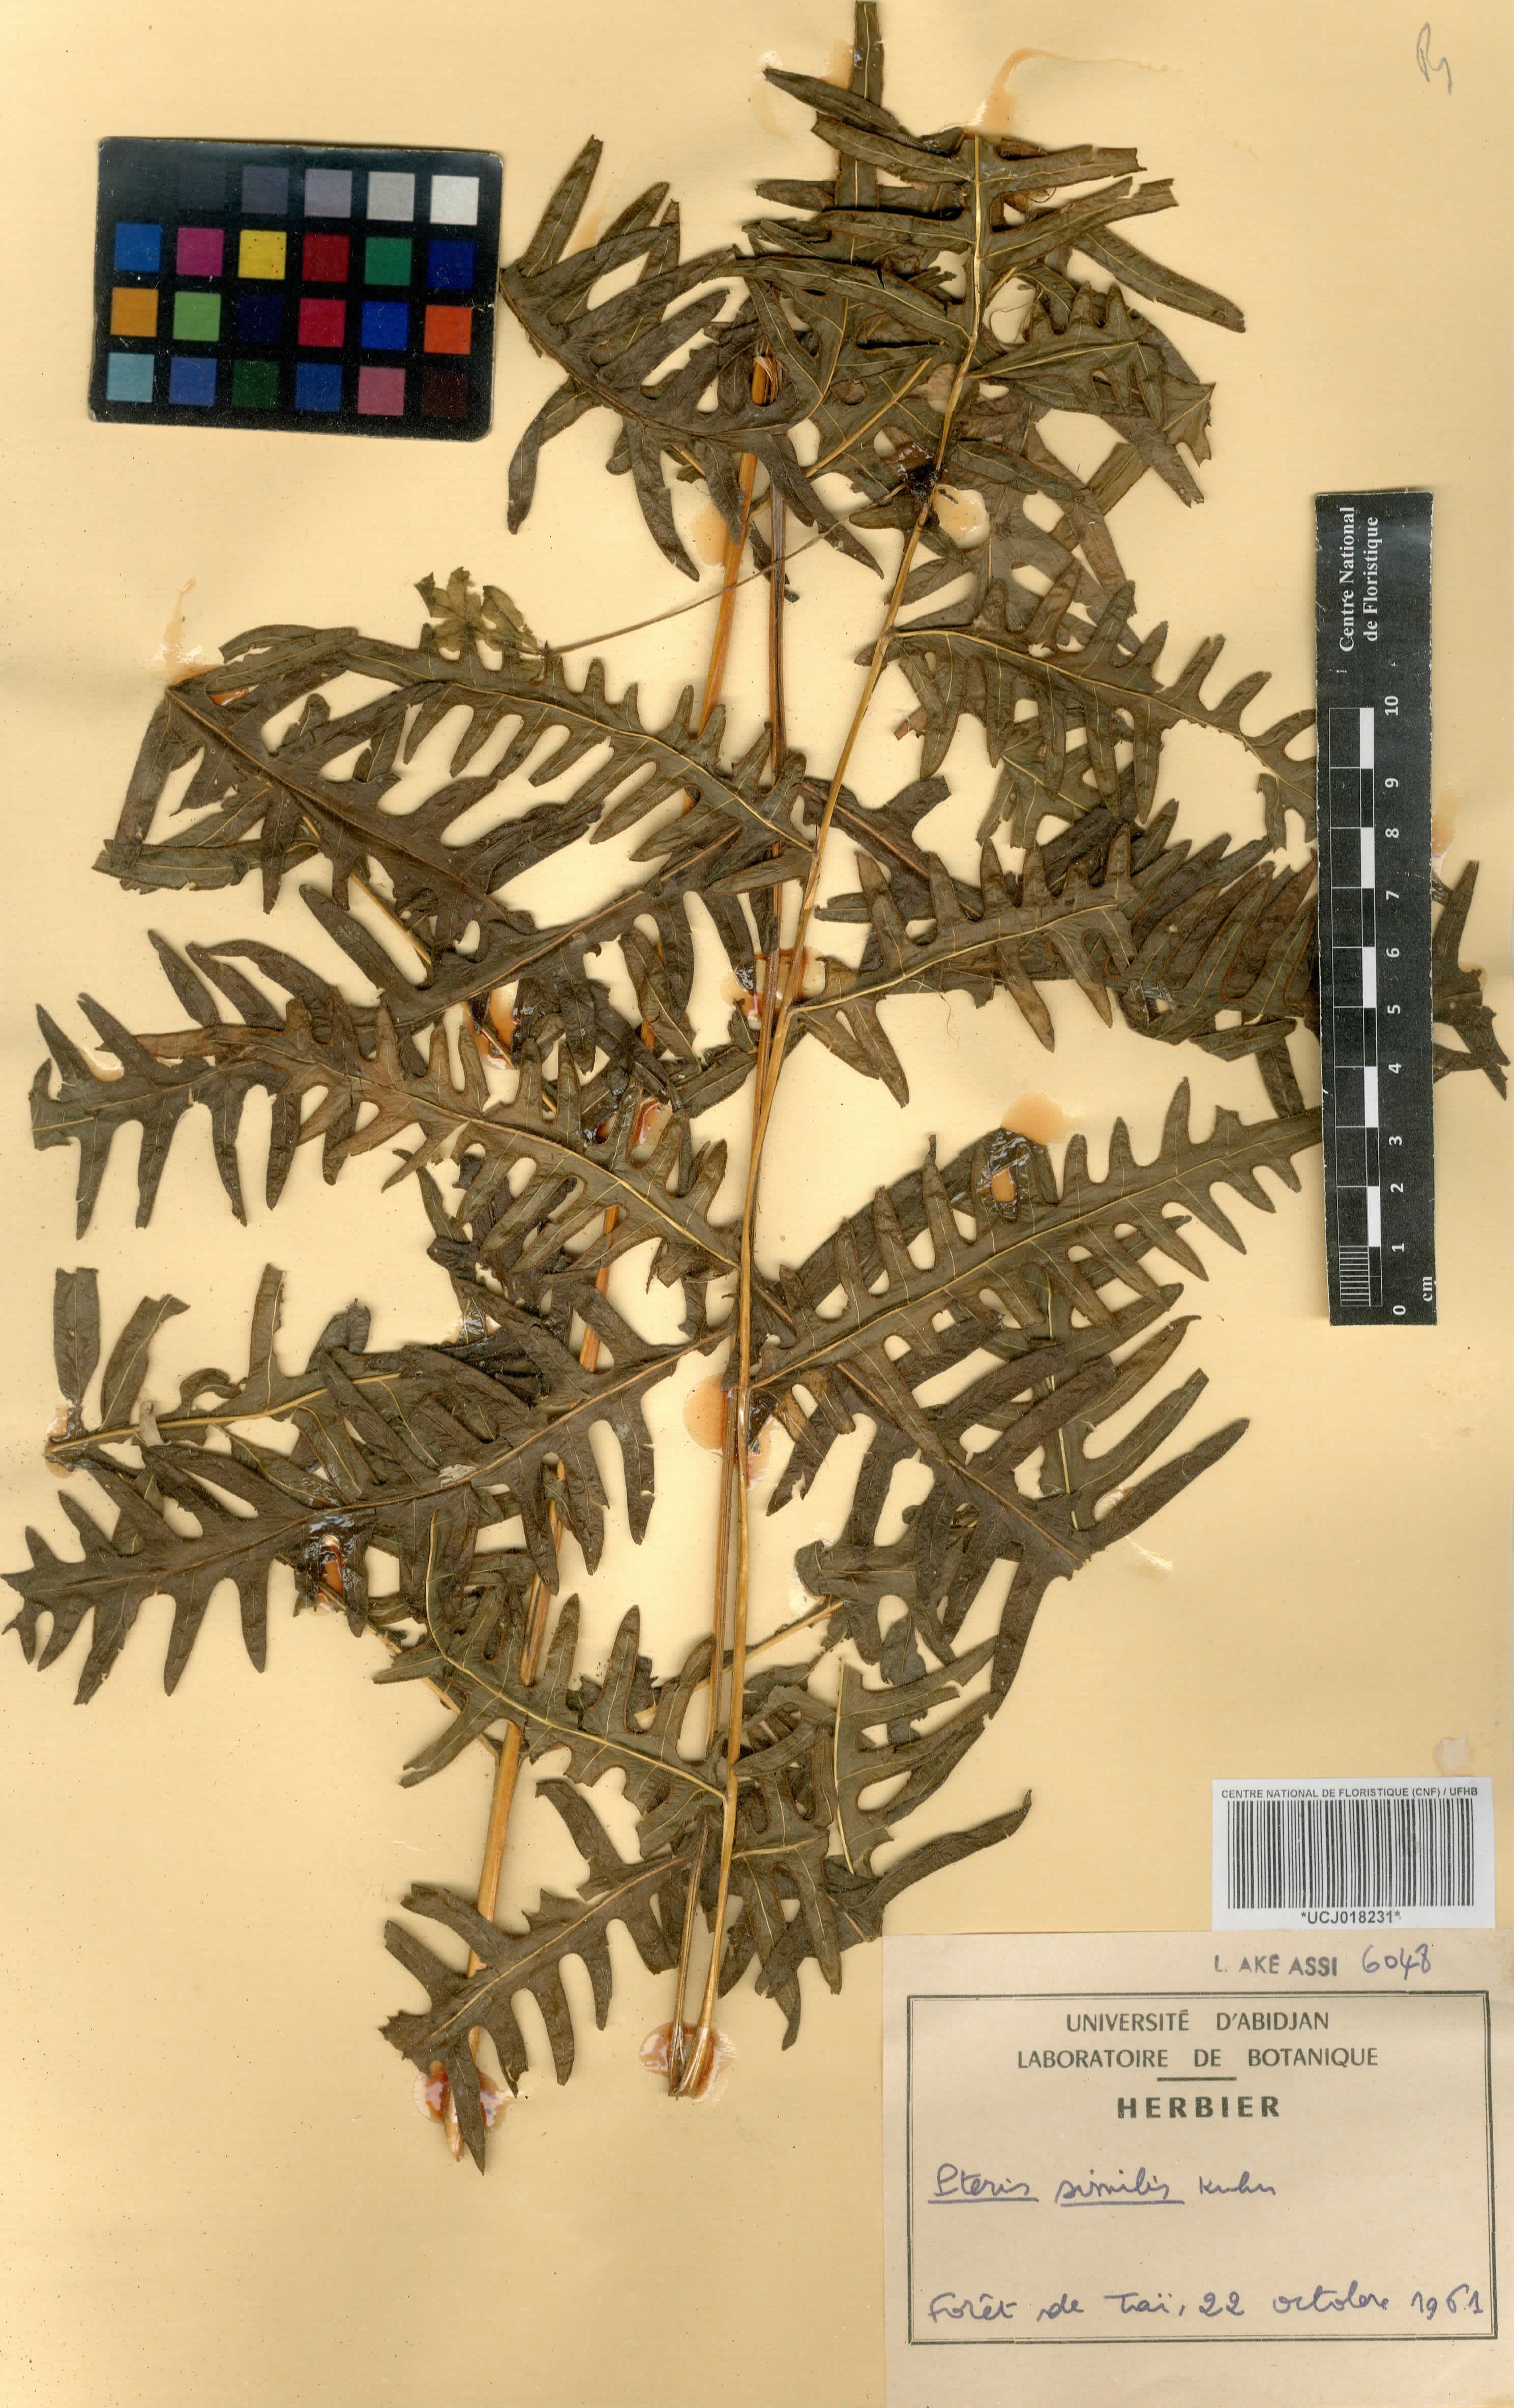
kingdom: Plantae
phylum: Tracheophyta
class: Polypodiopsida
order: Polypodiales
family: Pteridaceae
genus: Pteris
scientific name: Pteris similis
